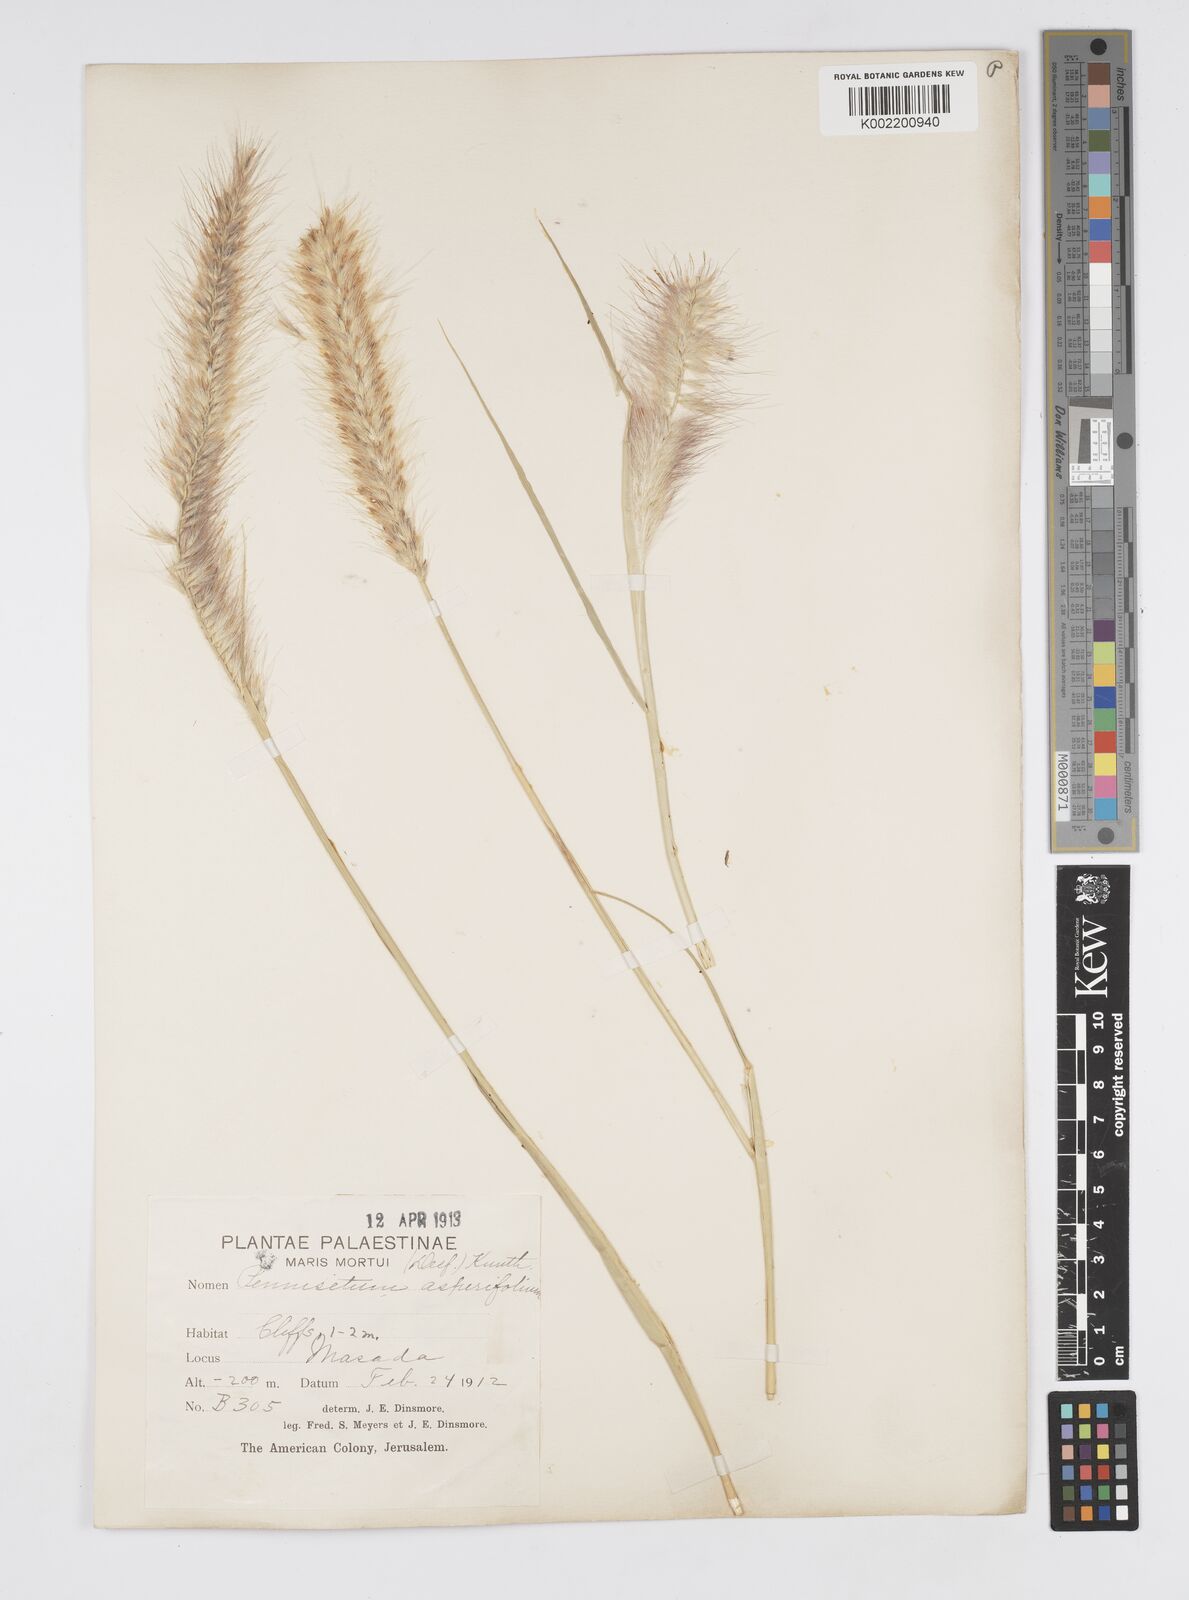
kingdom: Plantae
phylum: Tracheophyta
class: Liliopsida
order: Poales
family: Poaceae
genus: Cenchrus
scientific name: Cenchrus setaceus
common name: Crimson fountaingrass
